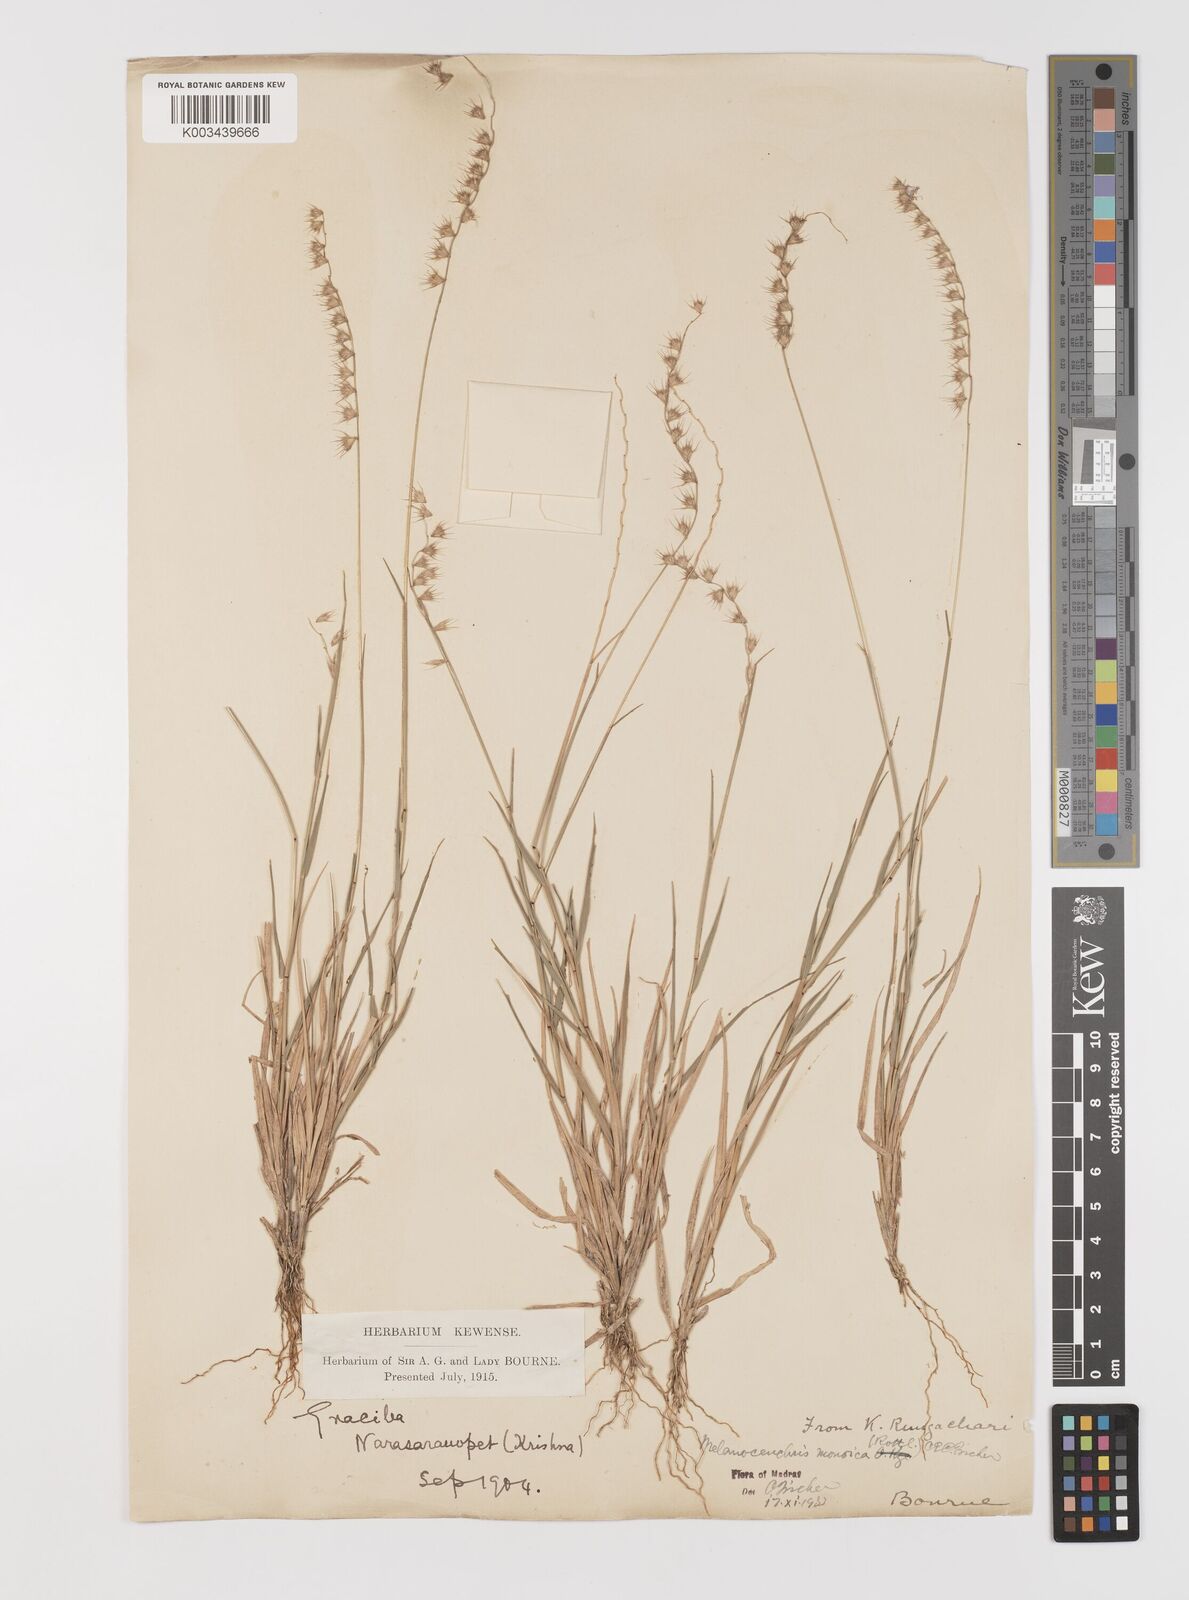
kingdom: Plantae
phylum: Tracheophyta
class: Liliopsida
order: Poales
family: Poaceae
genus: Melanocenchris
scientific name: Melanocenchris rothiana
